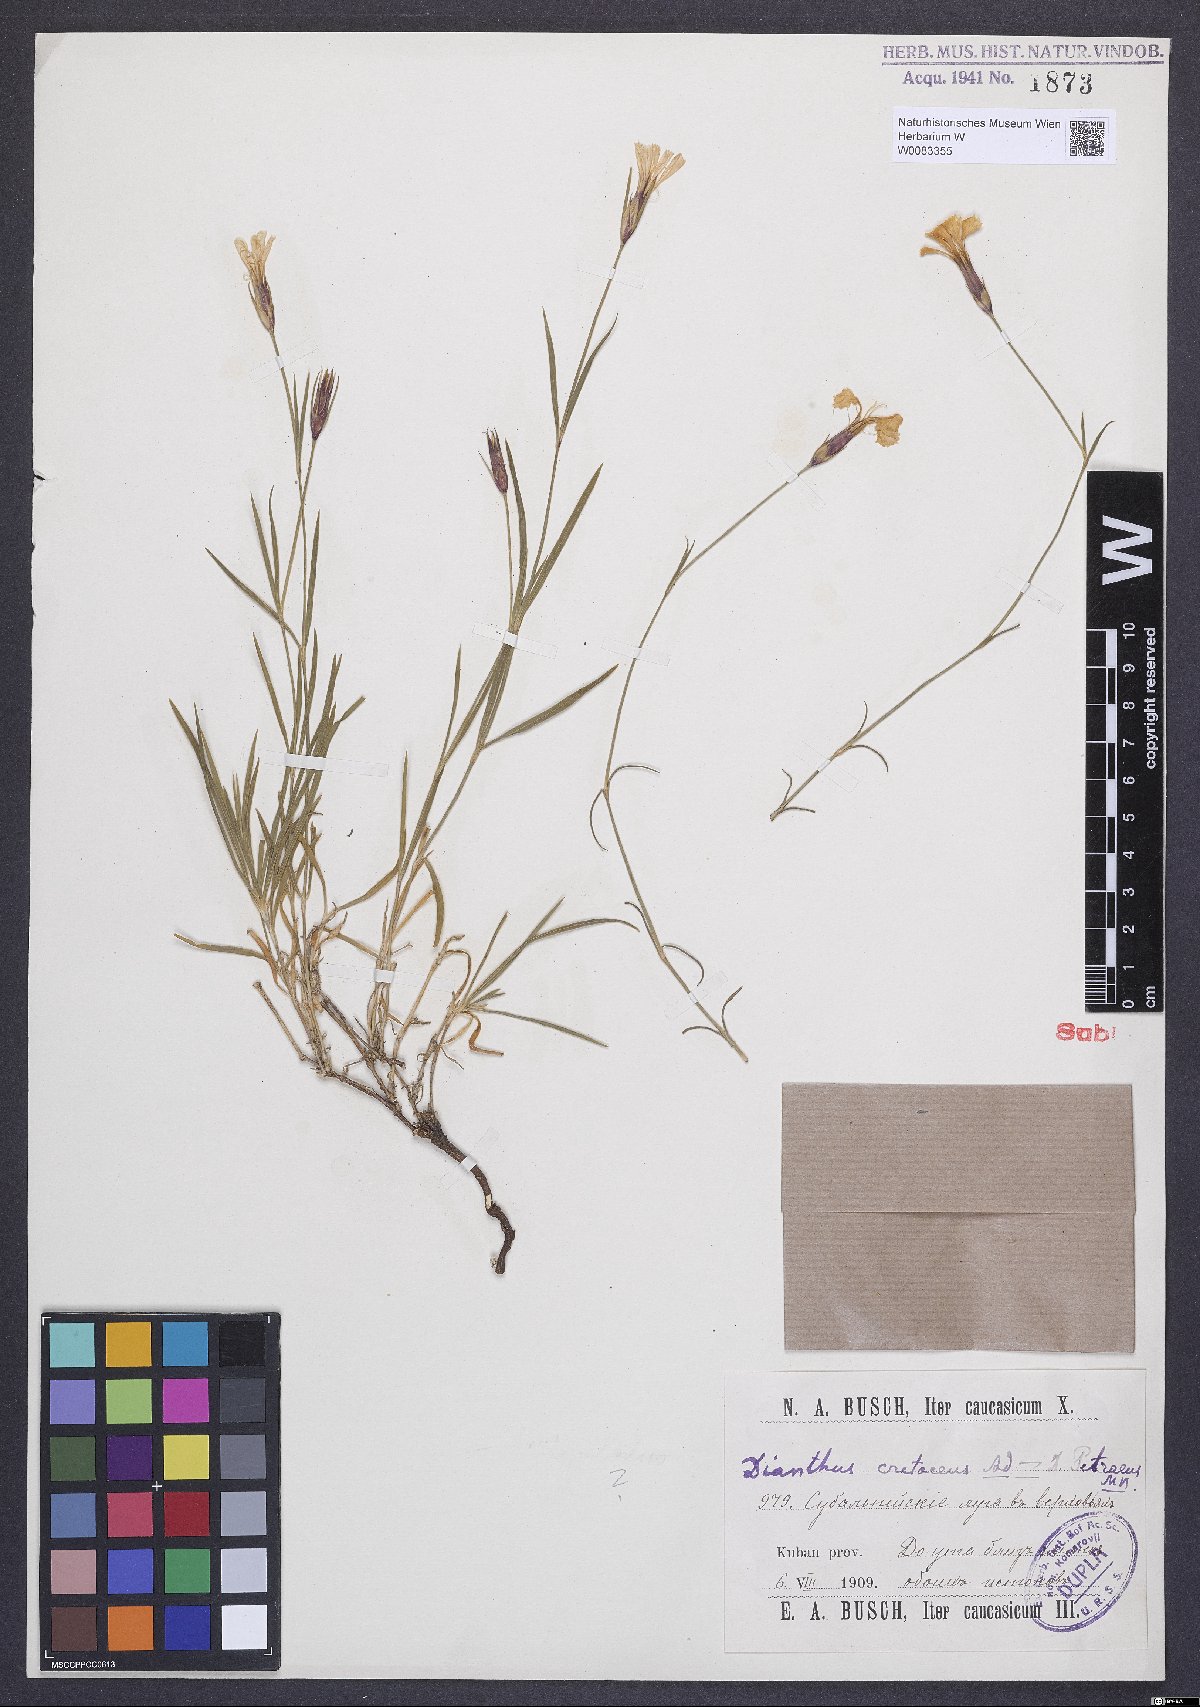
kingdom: Plantae
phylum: Tracheophyta
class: Magnoliopsida
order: Caryophyllales
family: Caryophyllaceae
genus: Dianthus
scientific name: Dianthus cretaceus
